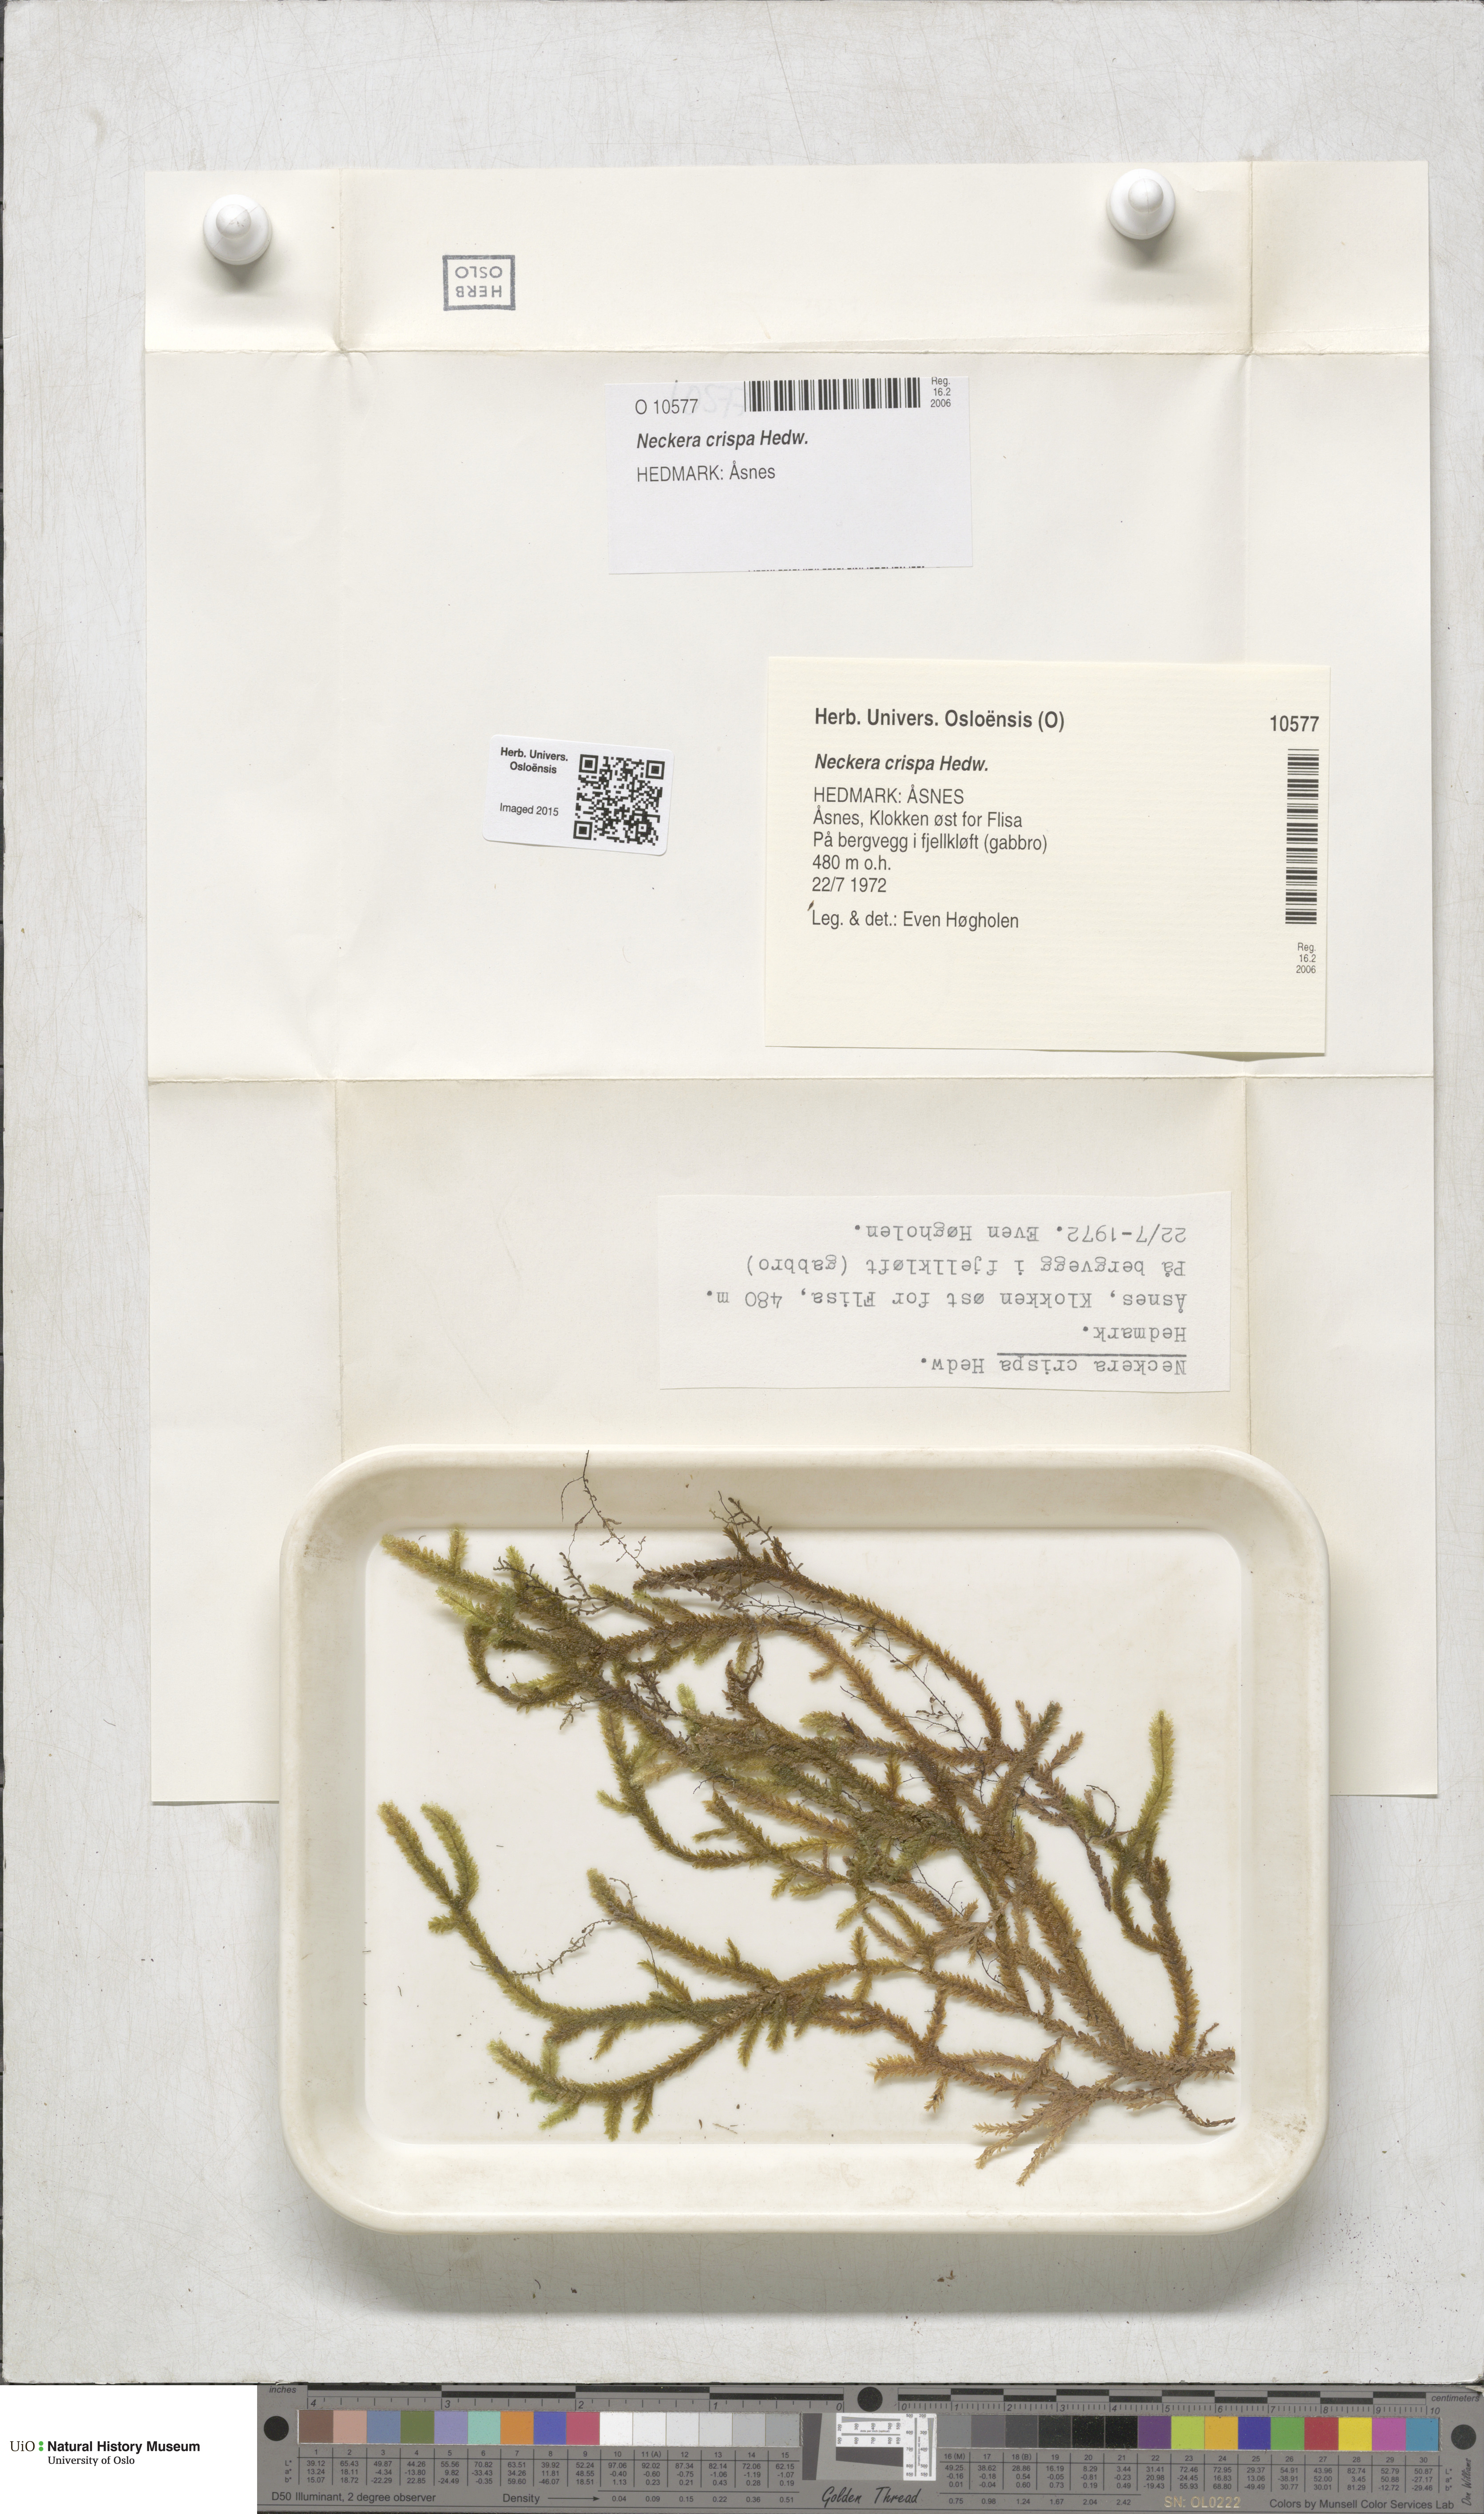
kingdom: Plantae
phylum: Bryophyta
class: Bryopsida
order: Hypnales
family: Neckeraceae
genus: Exsertotheca
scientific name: Exsertotheca crispa
